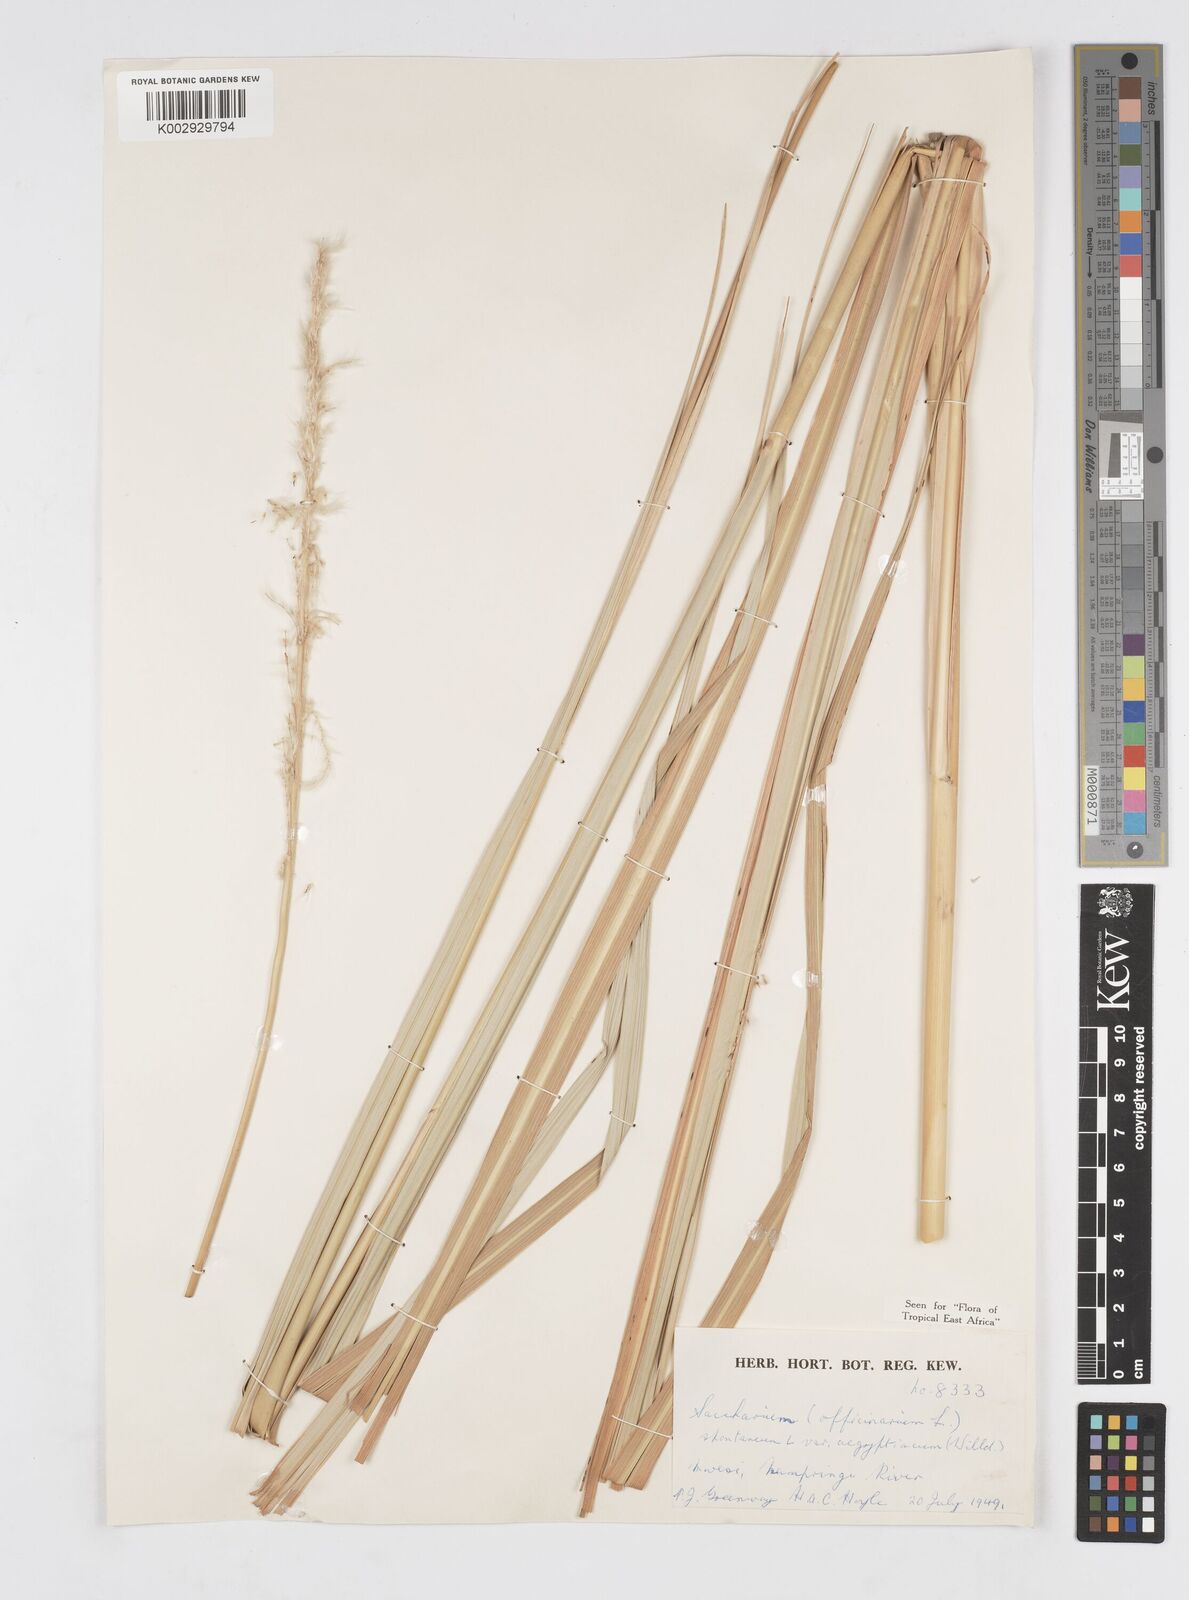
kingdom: Plantae
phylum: Tracheophyta
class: Liliopsida
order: Poales
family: Poaceae
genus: Saccharum
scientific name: Saccharum spontaneum
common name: Wild sugarcane
